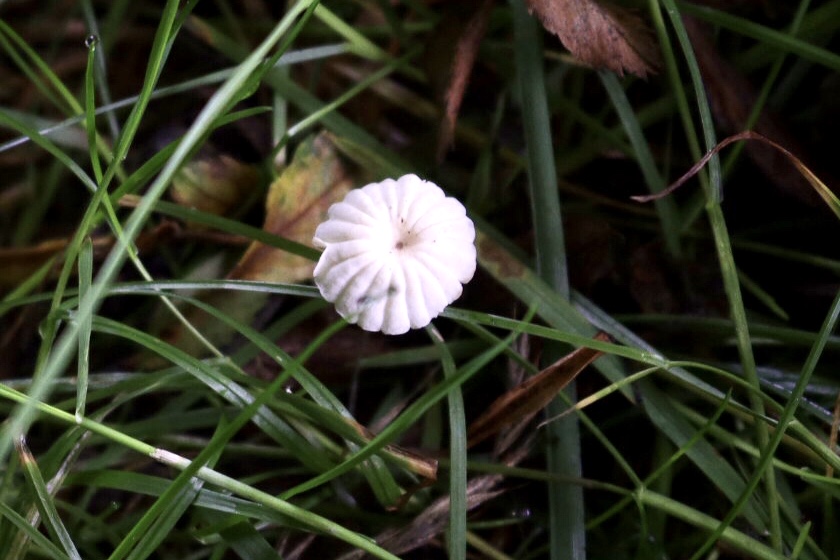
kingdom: Fungi
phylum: Basidiomycota
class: Agaricomycetes
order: Agaricales
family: Marasmiaceae
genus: Marasmius
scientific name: Marasmius rotula
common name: hjul-bruskhat
